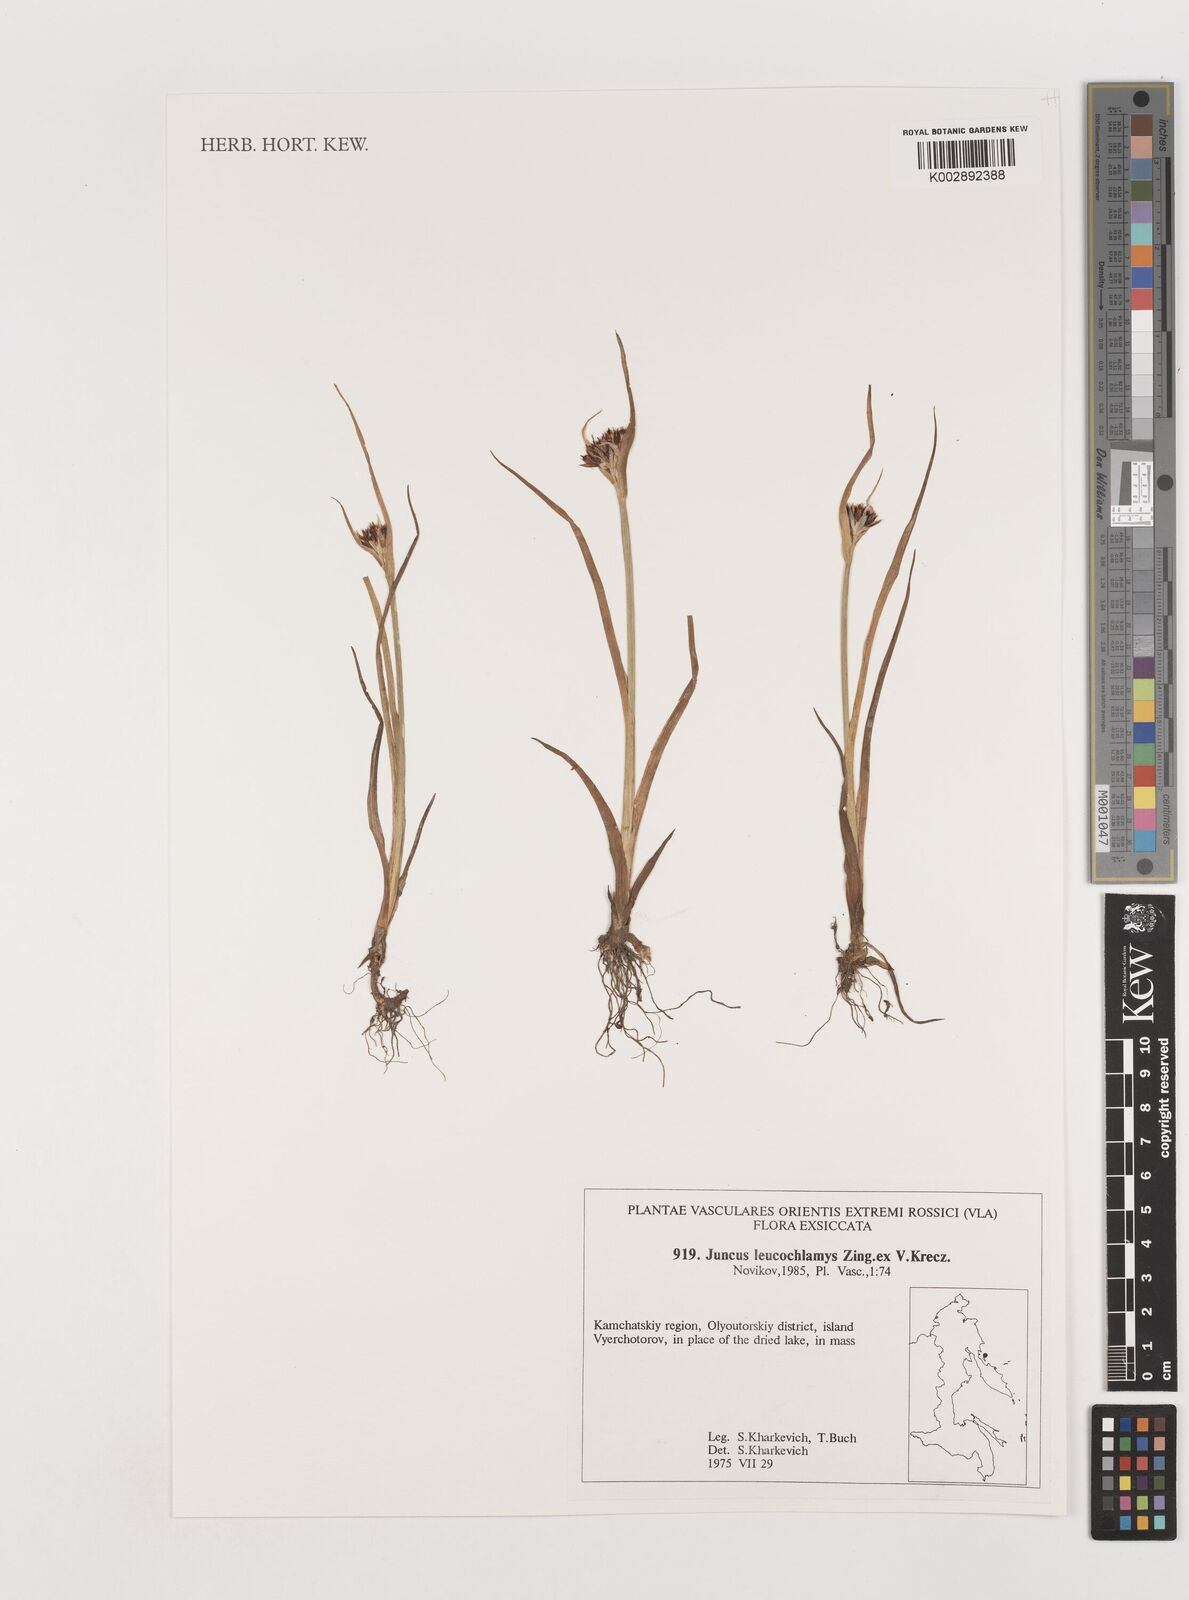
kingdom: Plantae
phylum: Tracheophyta
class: Liliopsida
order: Poales
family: Juncaceae
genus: Juncus
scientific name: Juncus castaneus
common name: Chestnut rush
